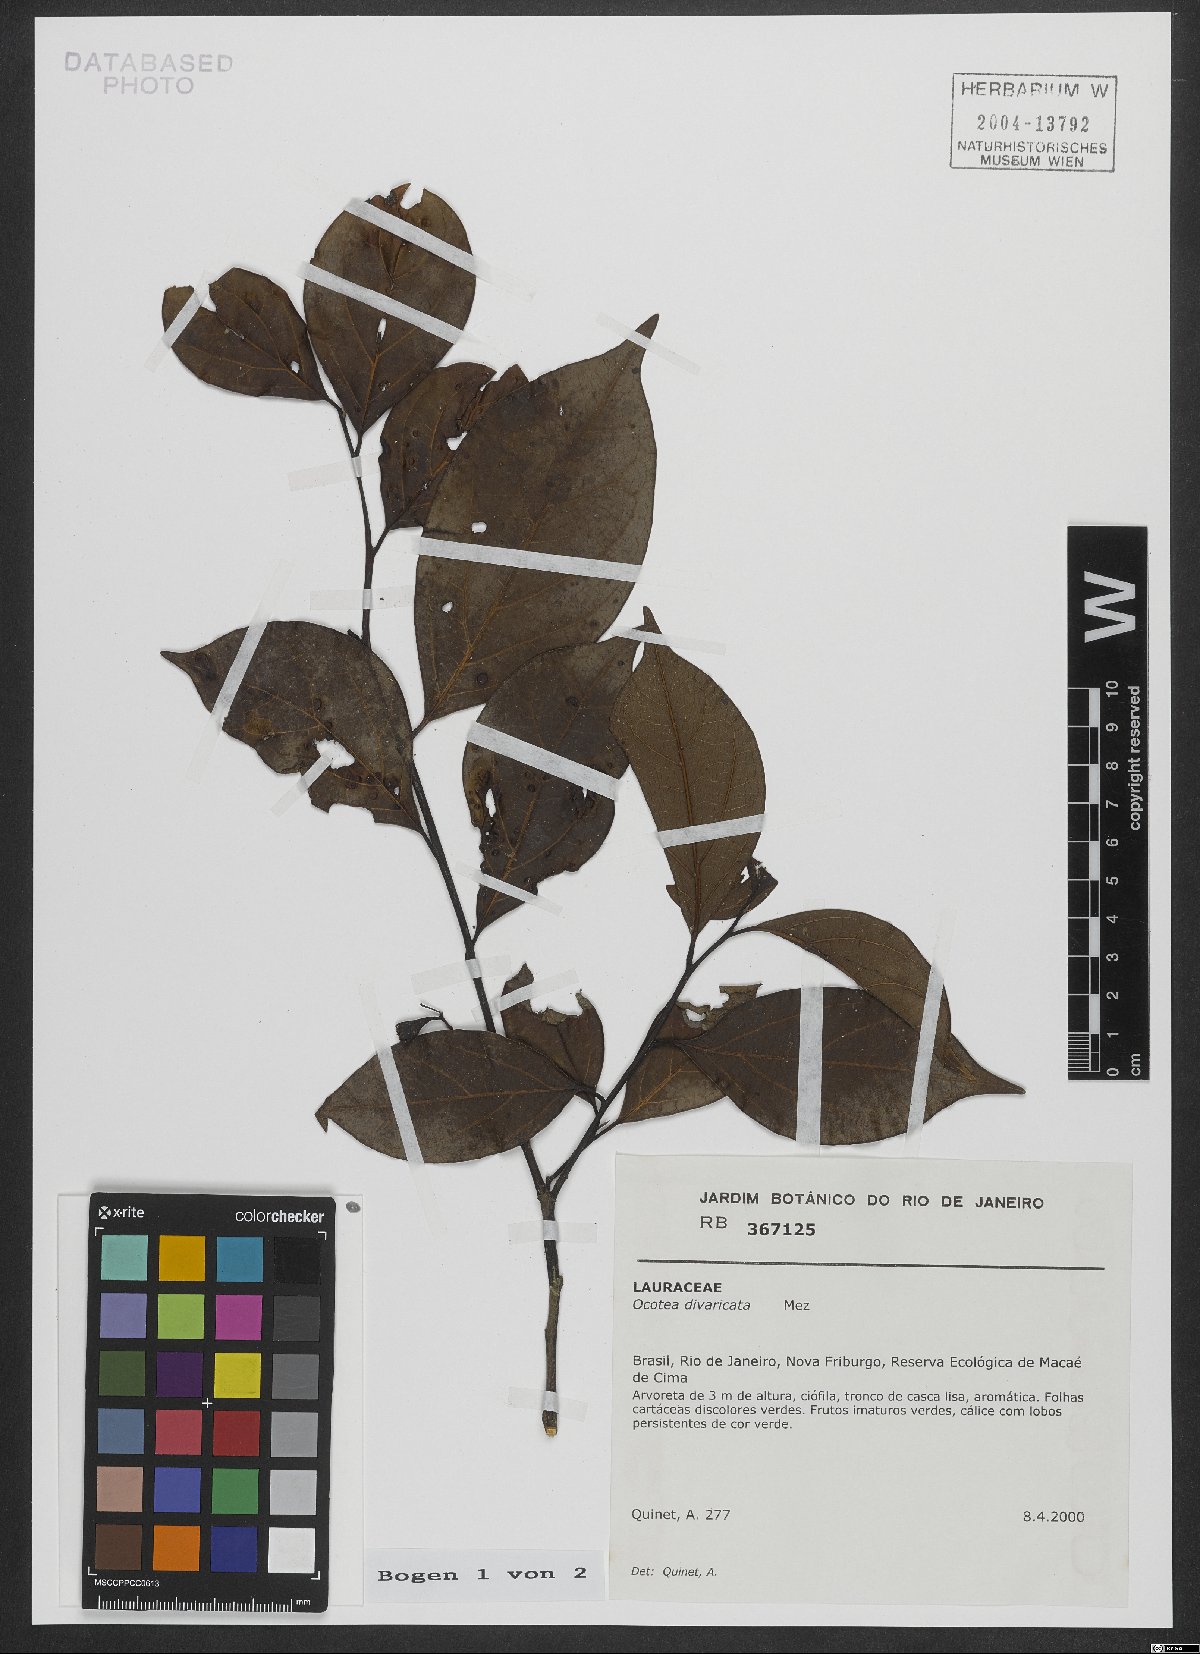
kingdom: Plantae
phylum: Tracheophyta
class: Magnoliopsida
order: Laurales
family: Lauraceae
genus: Ocotea
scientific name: Ocotea divaricata
